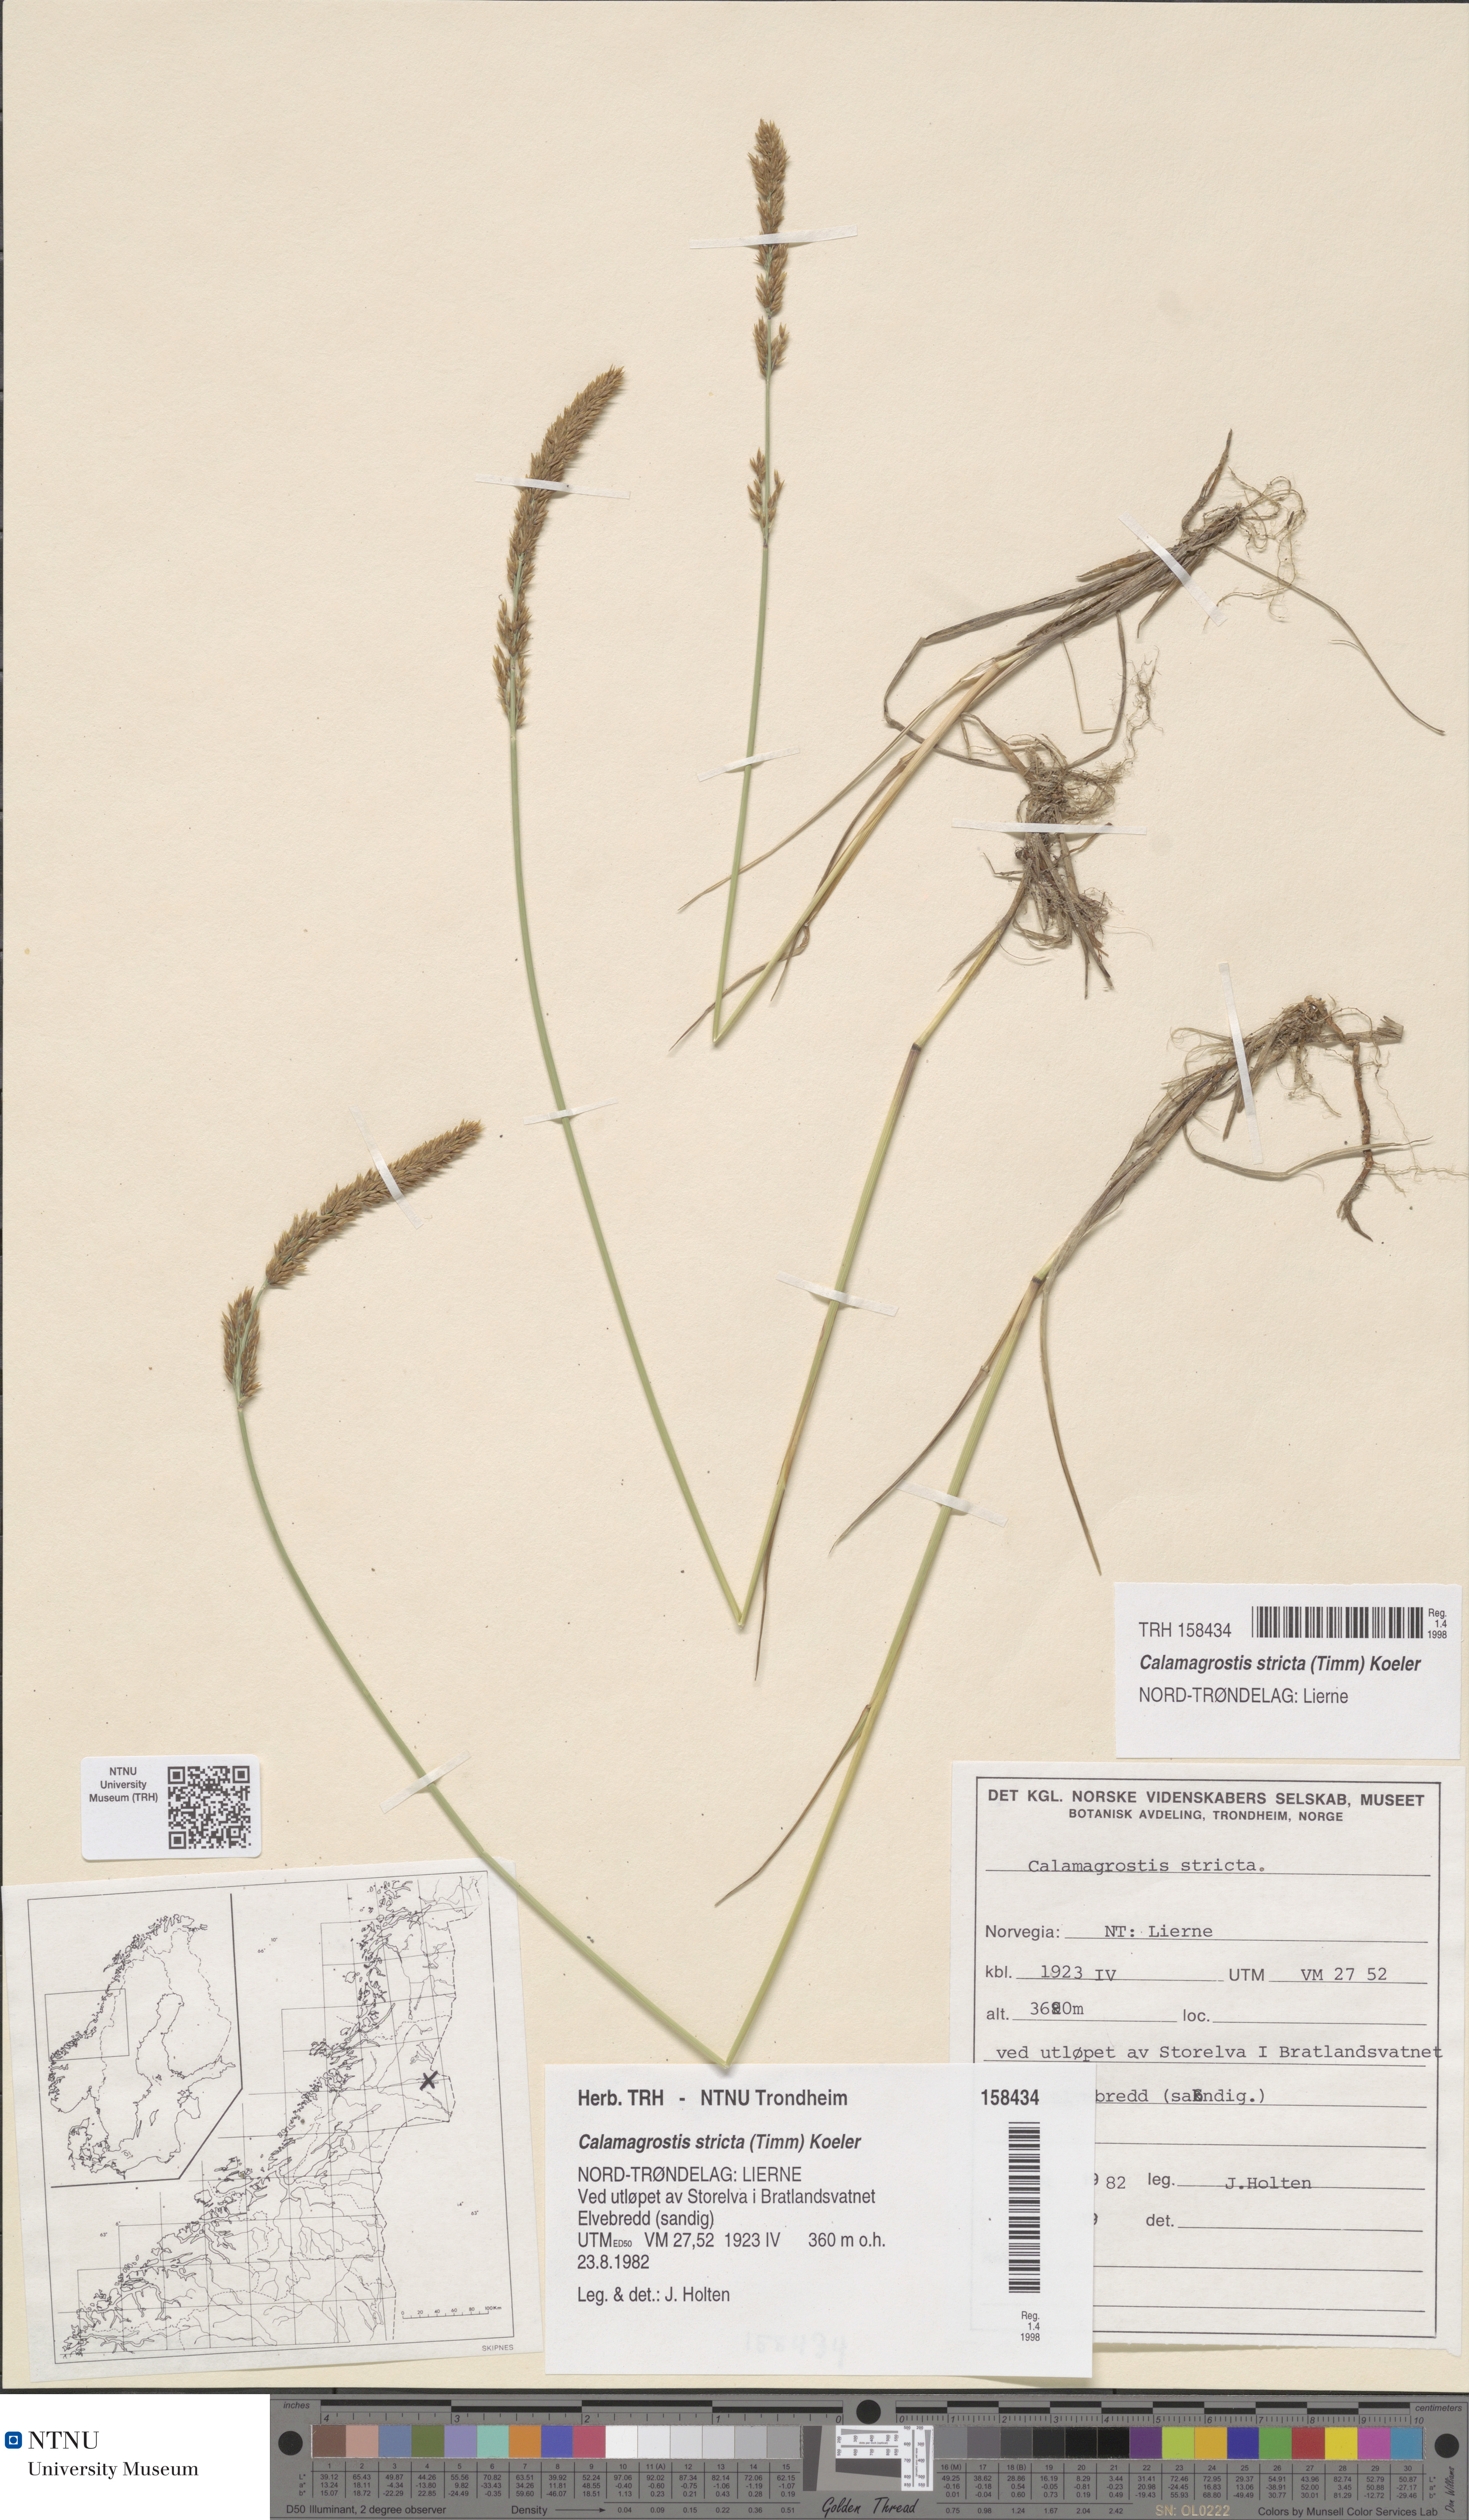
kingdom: Plantae
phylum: Tracheophyta
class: Liliopsida
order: Poales
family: Poaceae
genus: Achnatherum
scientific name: Achnatherum calamagrostis
